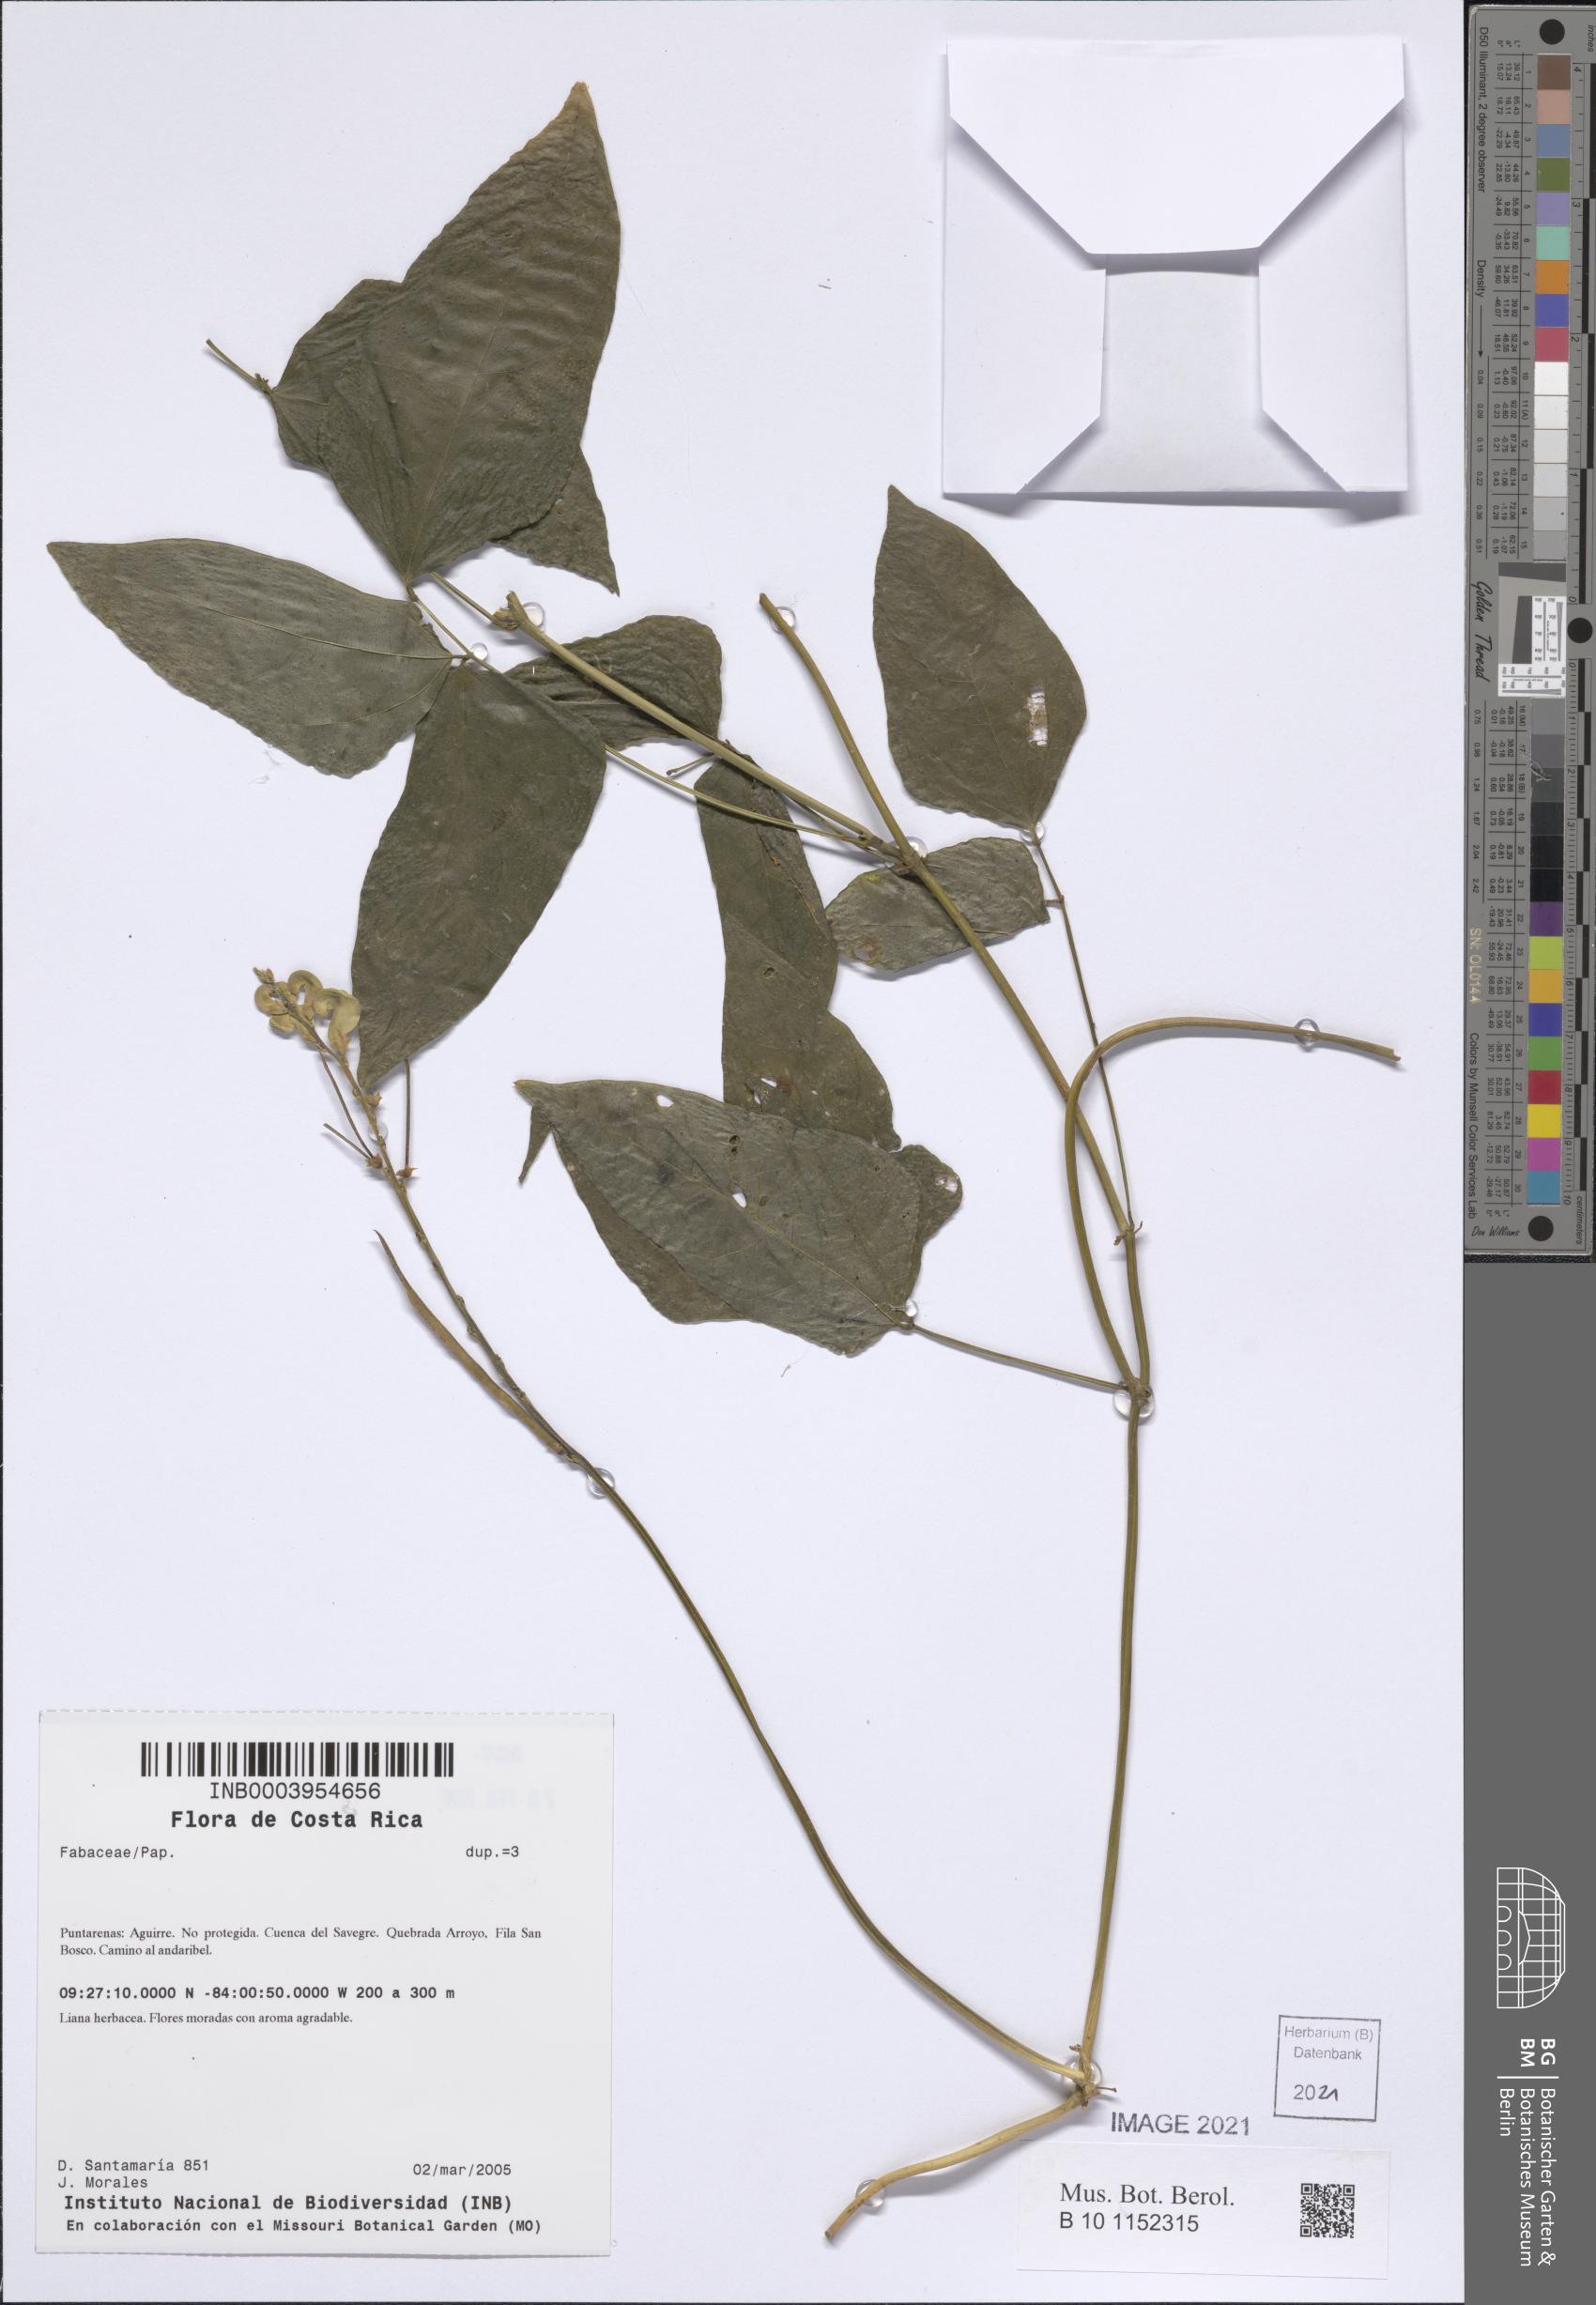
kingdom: Plantae
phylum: Tracheophyta
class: Magnoliopsida
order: Fabales
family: Fabaceae
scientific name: Fabaceae
